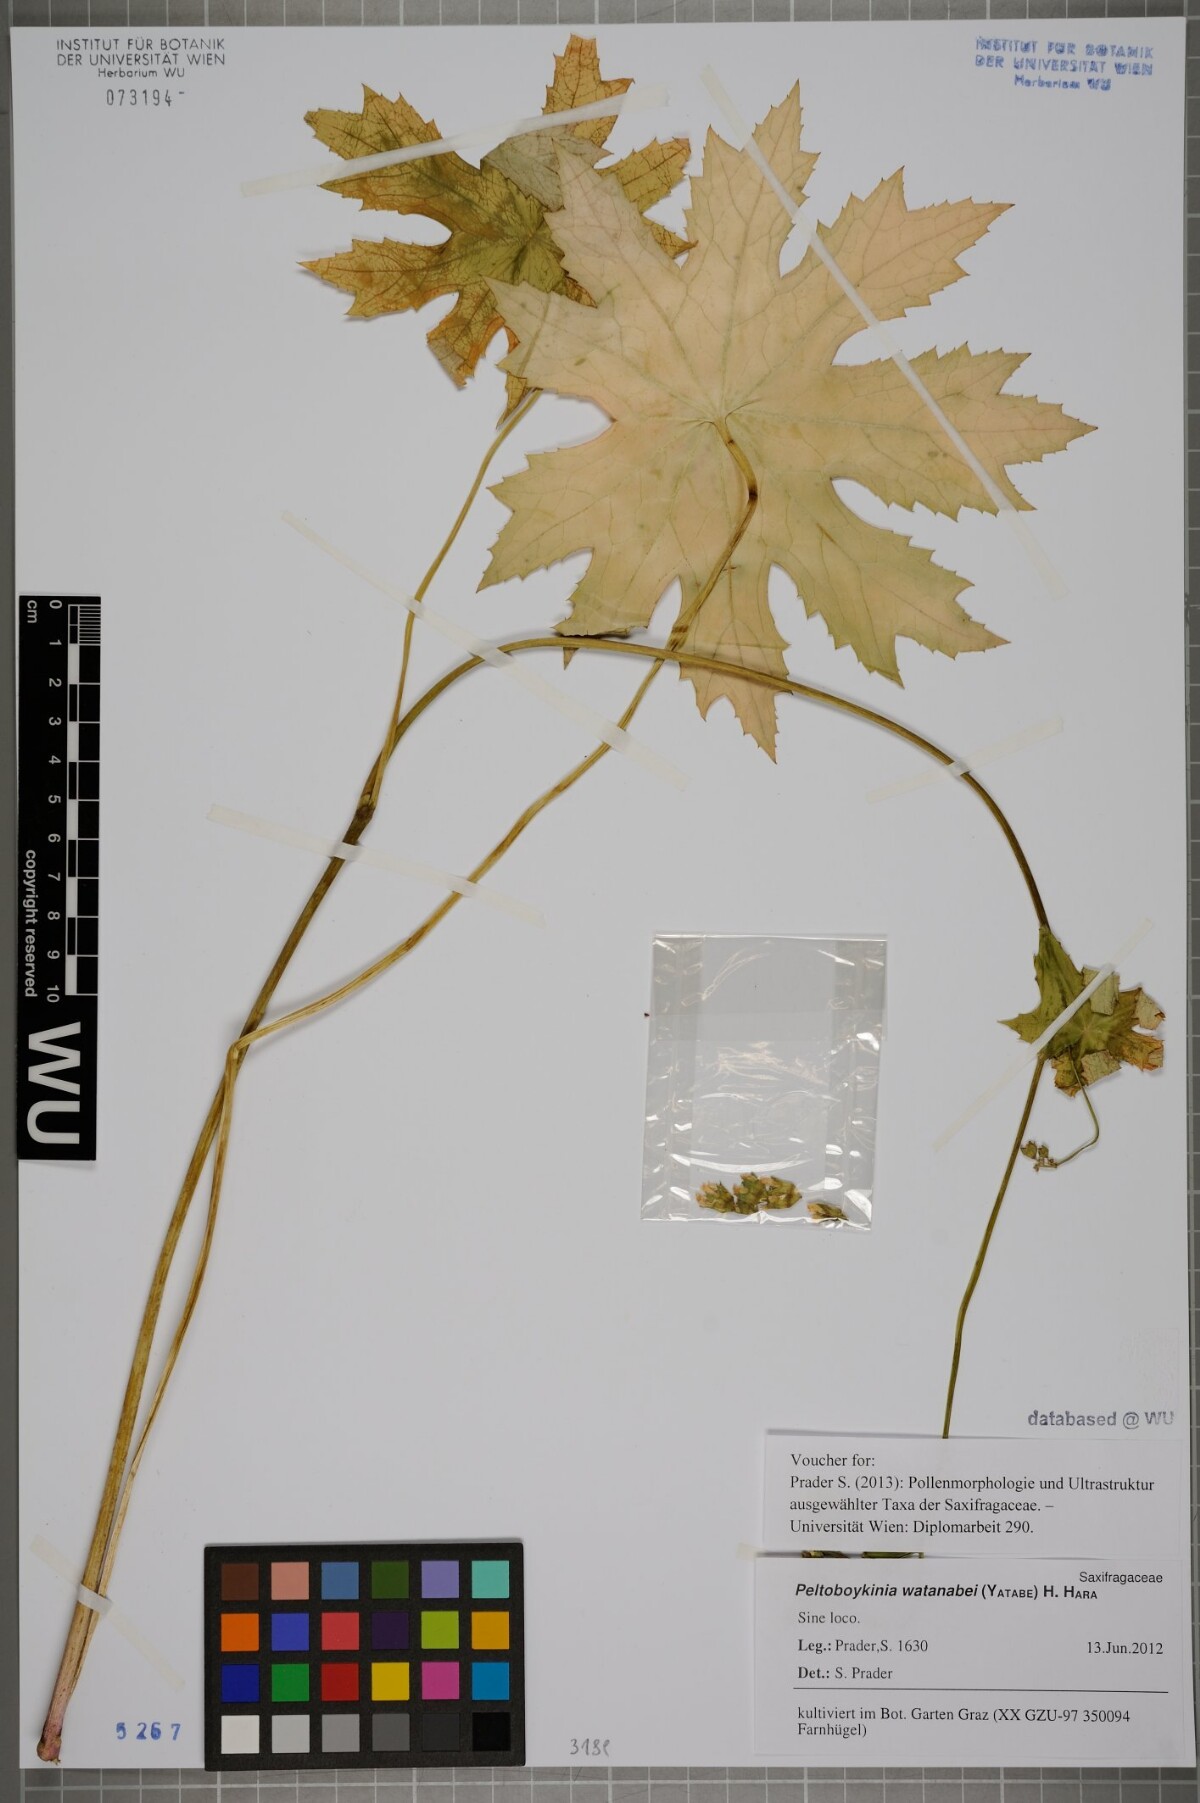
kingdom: Plantae
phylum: Tracheophyta
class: Magnoliopsida
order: Saxifragales
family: Saxifragaceae
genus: Peltoboykinia
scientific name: Peltoboykinia watanabei
